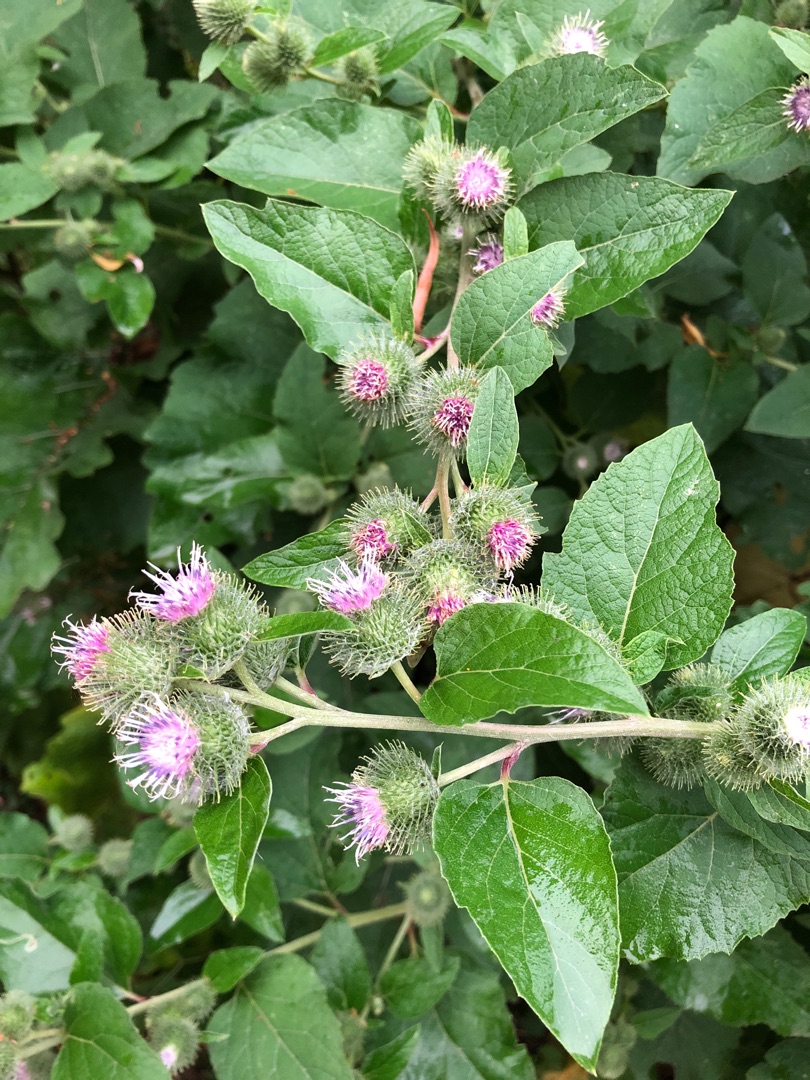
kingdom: Plantae
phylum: Tracheophyta
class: Magnoliopsida
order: Asterales
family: Asteraceae
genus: Arctium
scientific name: Arctium nemorosum
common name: Skov-burre
